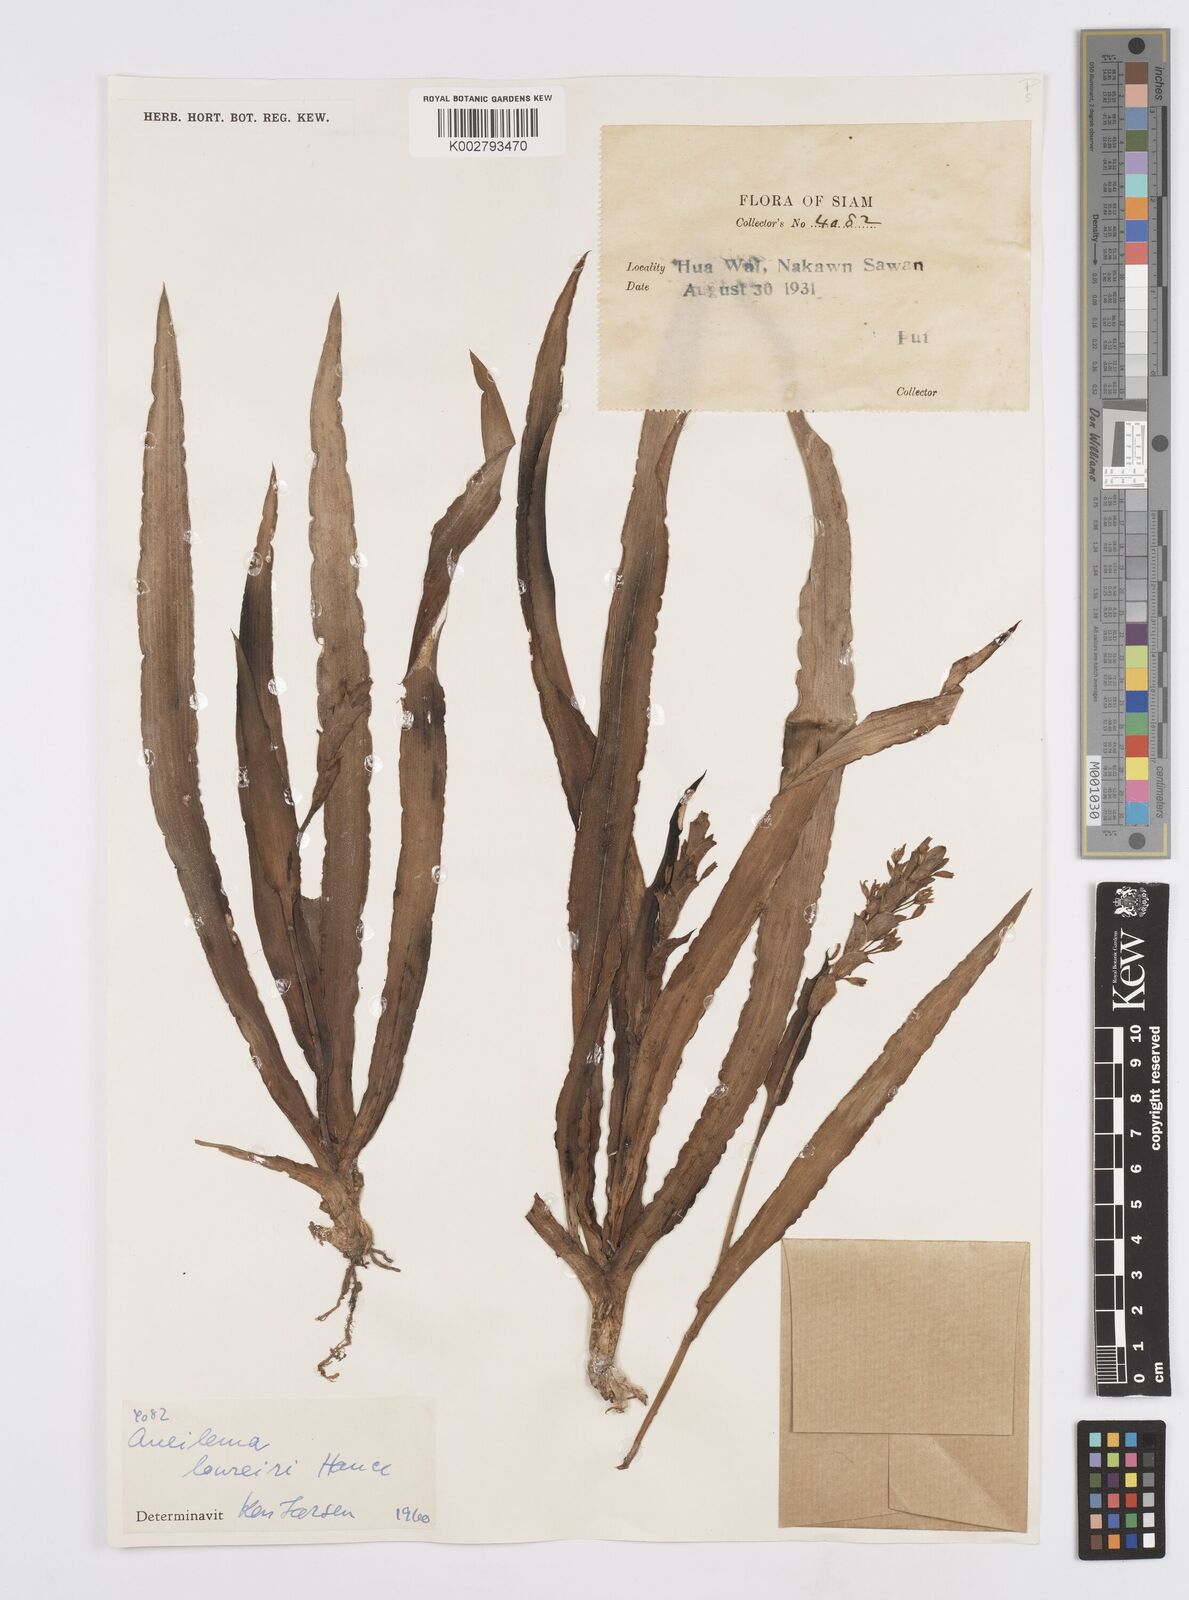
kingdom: Plantae
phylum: Tracheophyta
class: Liliopsida
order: Commelinales
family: Commelinaceae
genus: Murdannia
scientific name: Murdannia edulis
